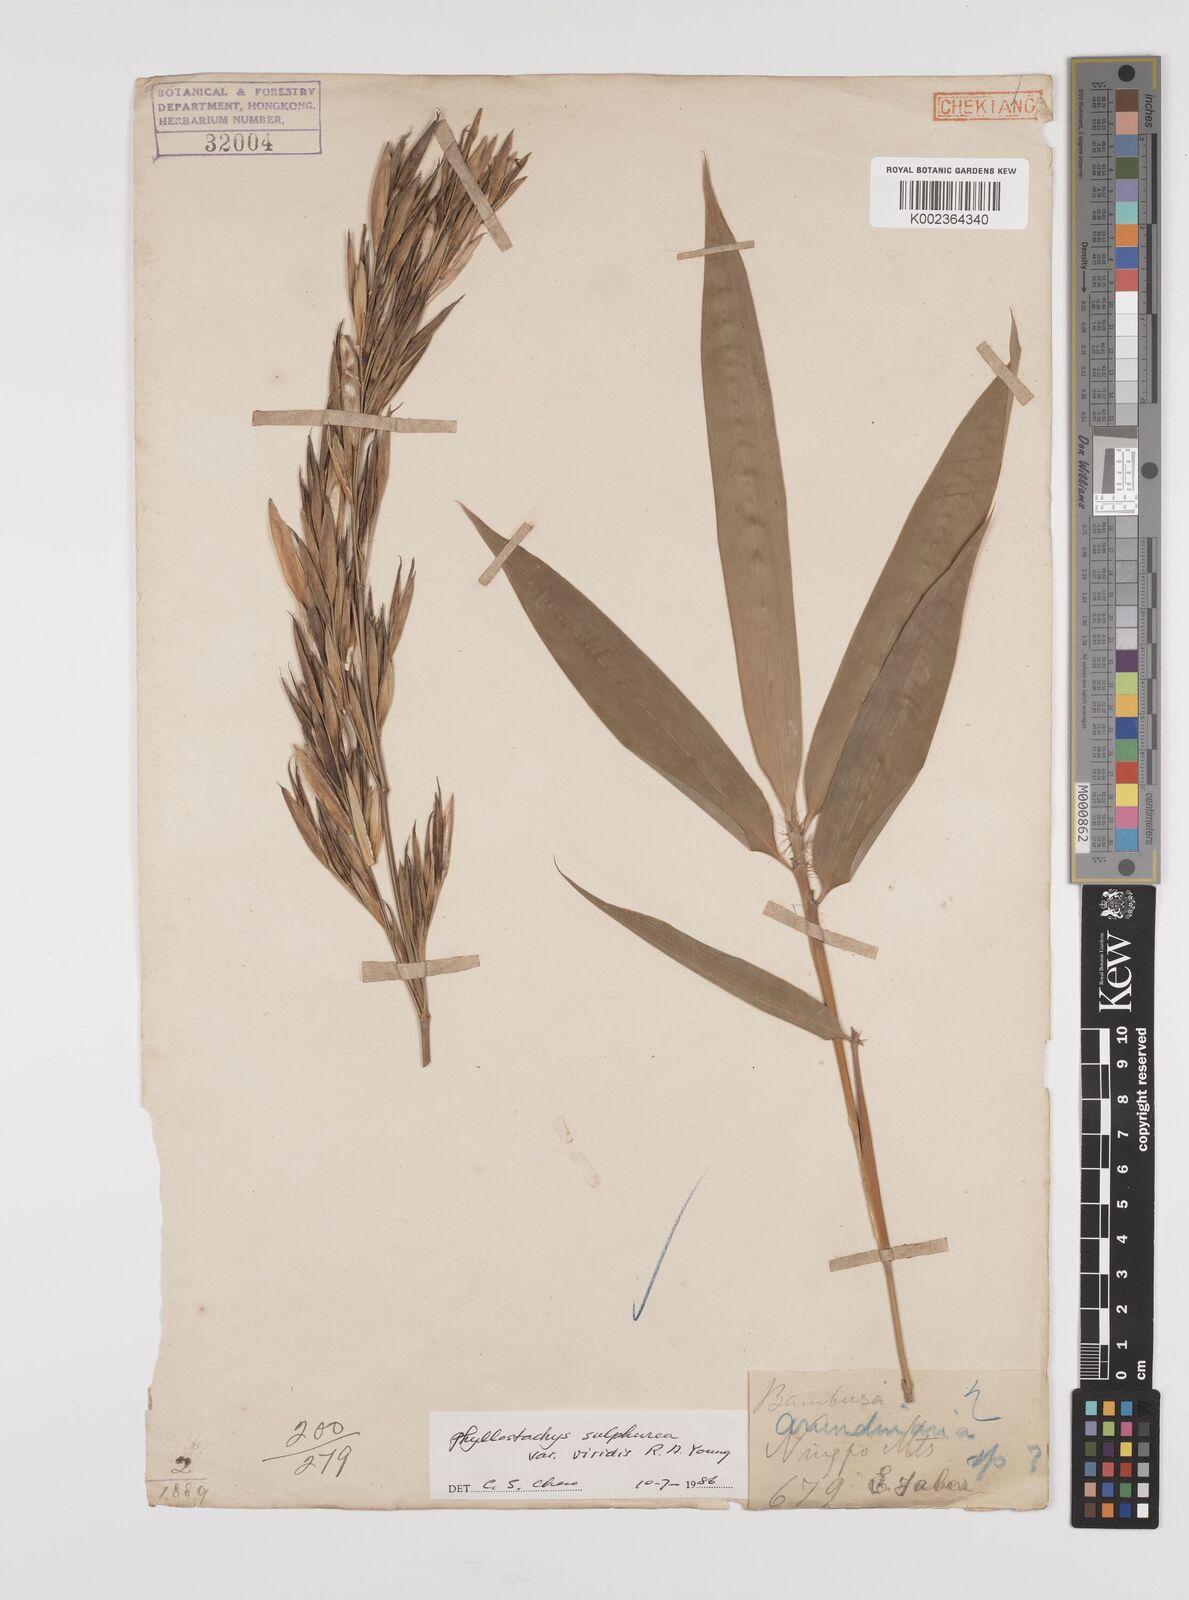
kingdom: Plantae
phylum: Tracheophyta
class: Liliopsida
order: Poales
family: Poaceae
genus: Phyllostachys
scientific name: Phyllostachys sulphurea
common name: Sulphur bamboo
